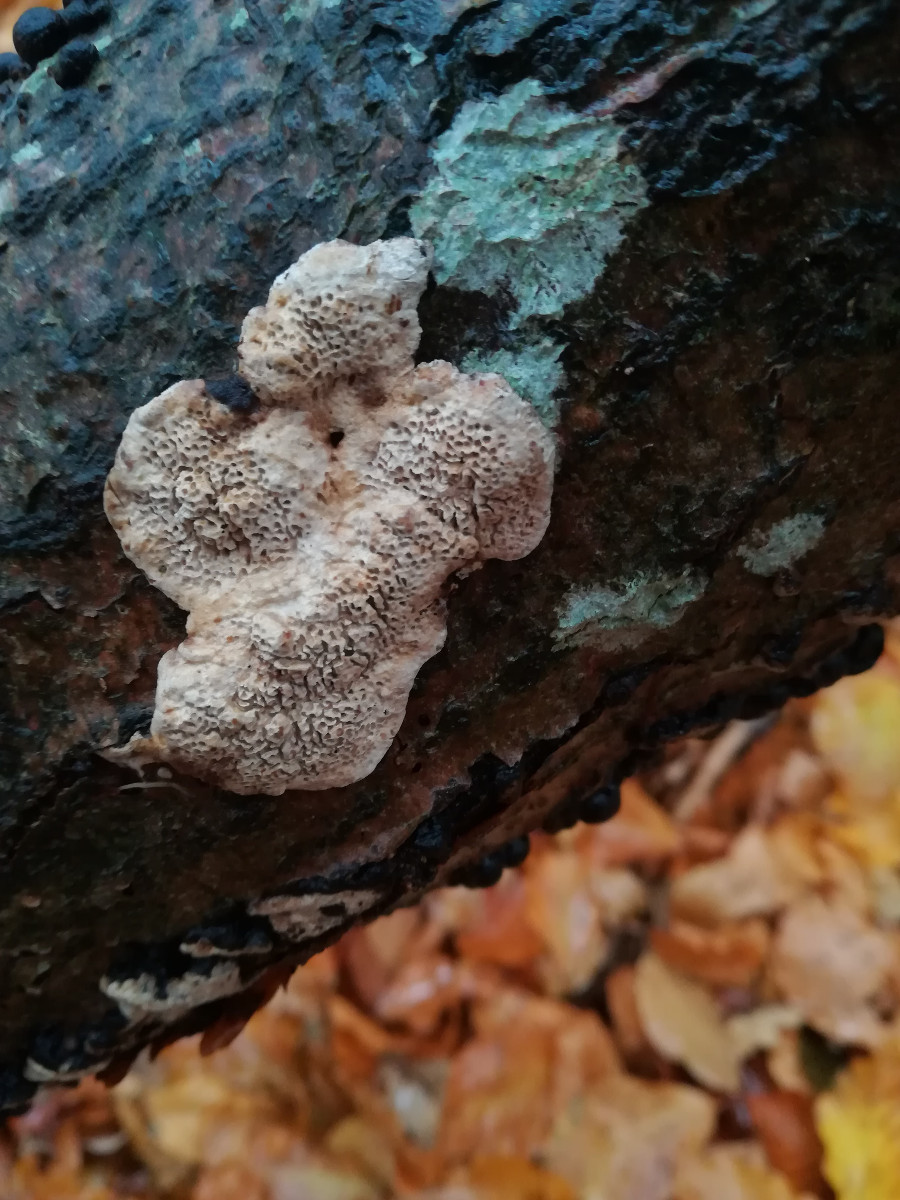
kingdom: Fungi
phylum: Basidiomycota
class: Agaricomycetes
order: Polyporales
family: Polyporaceae
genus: Podofomes
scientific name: Podofomes mollis
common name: blød begporesvamp
